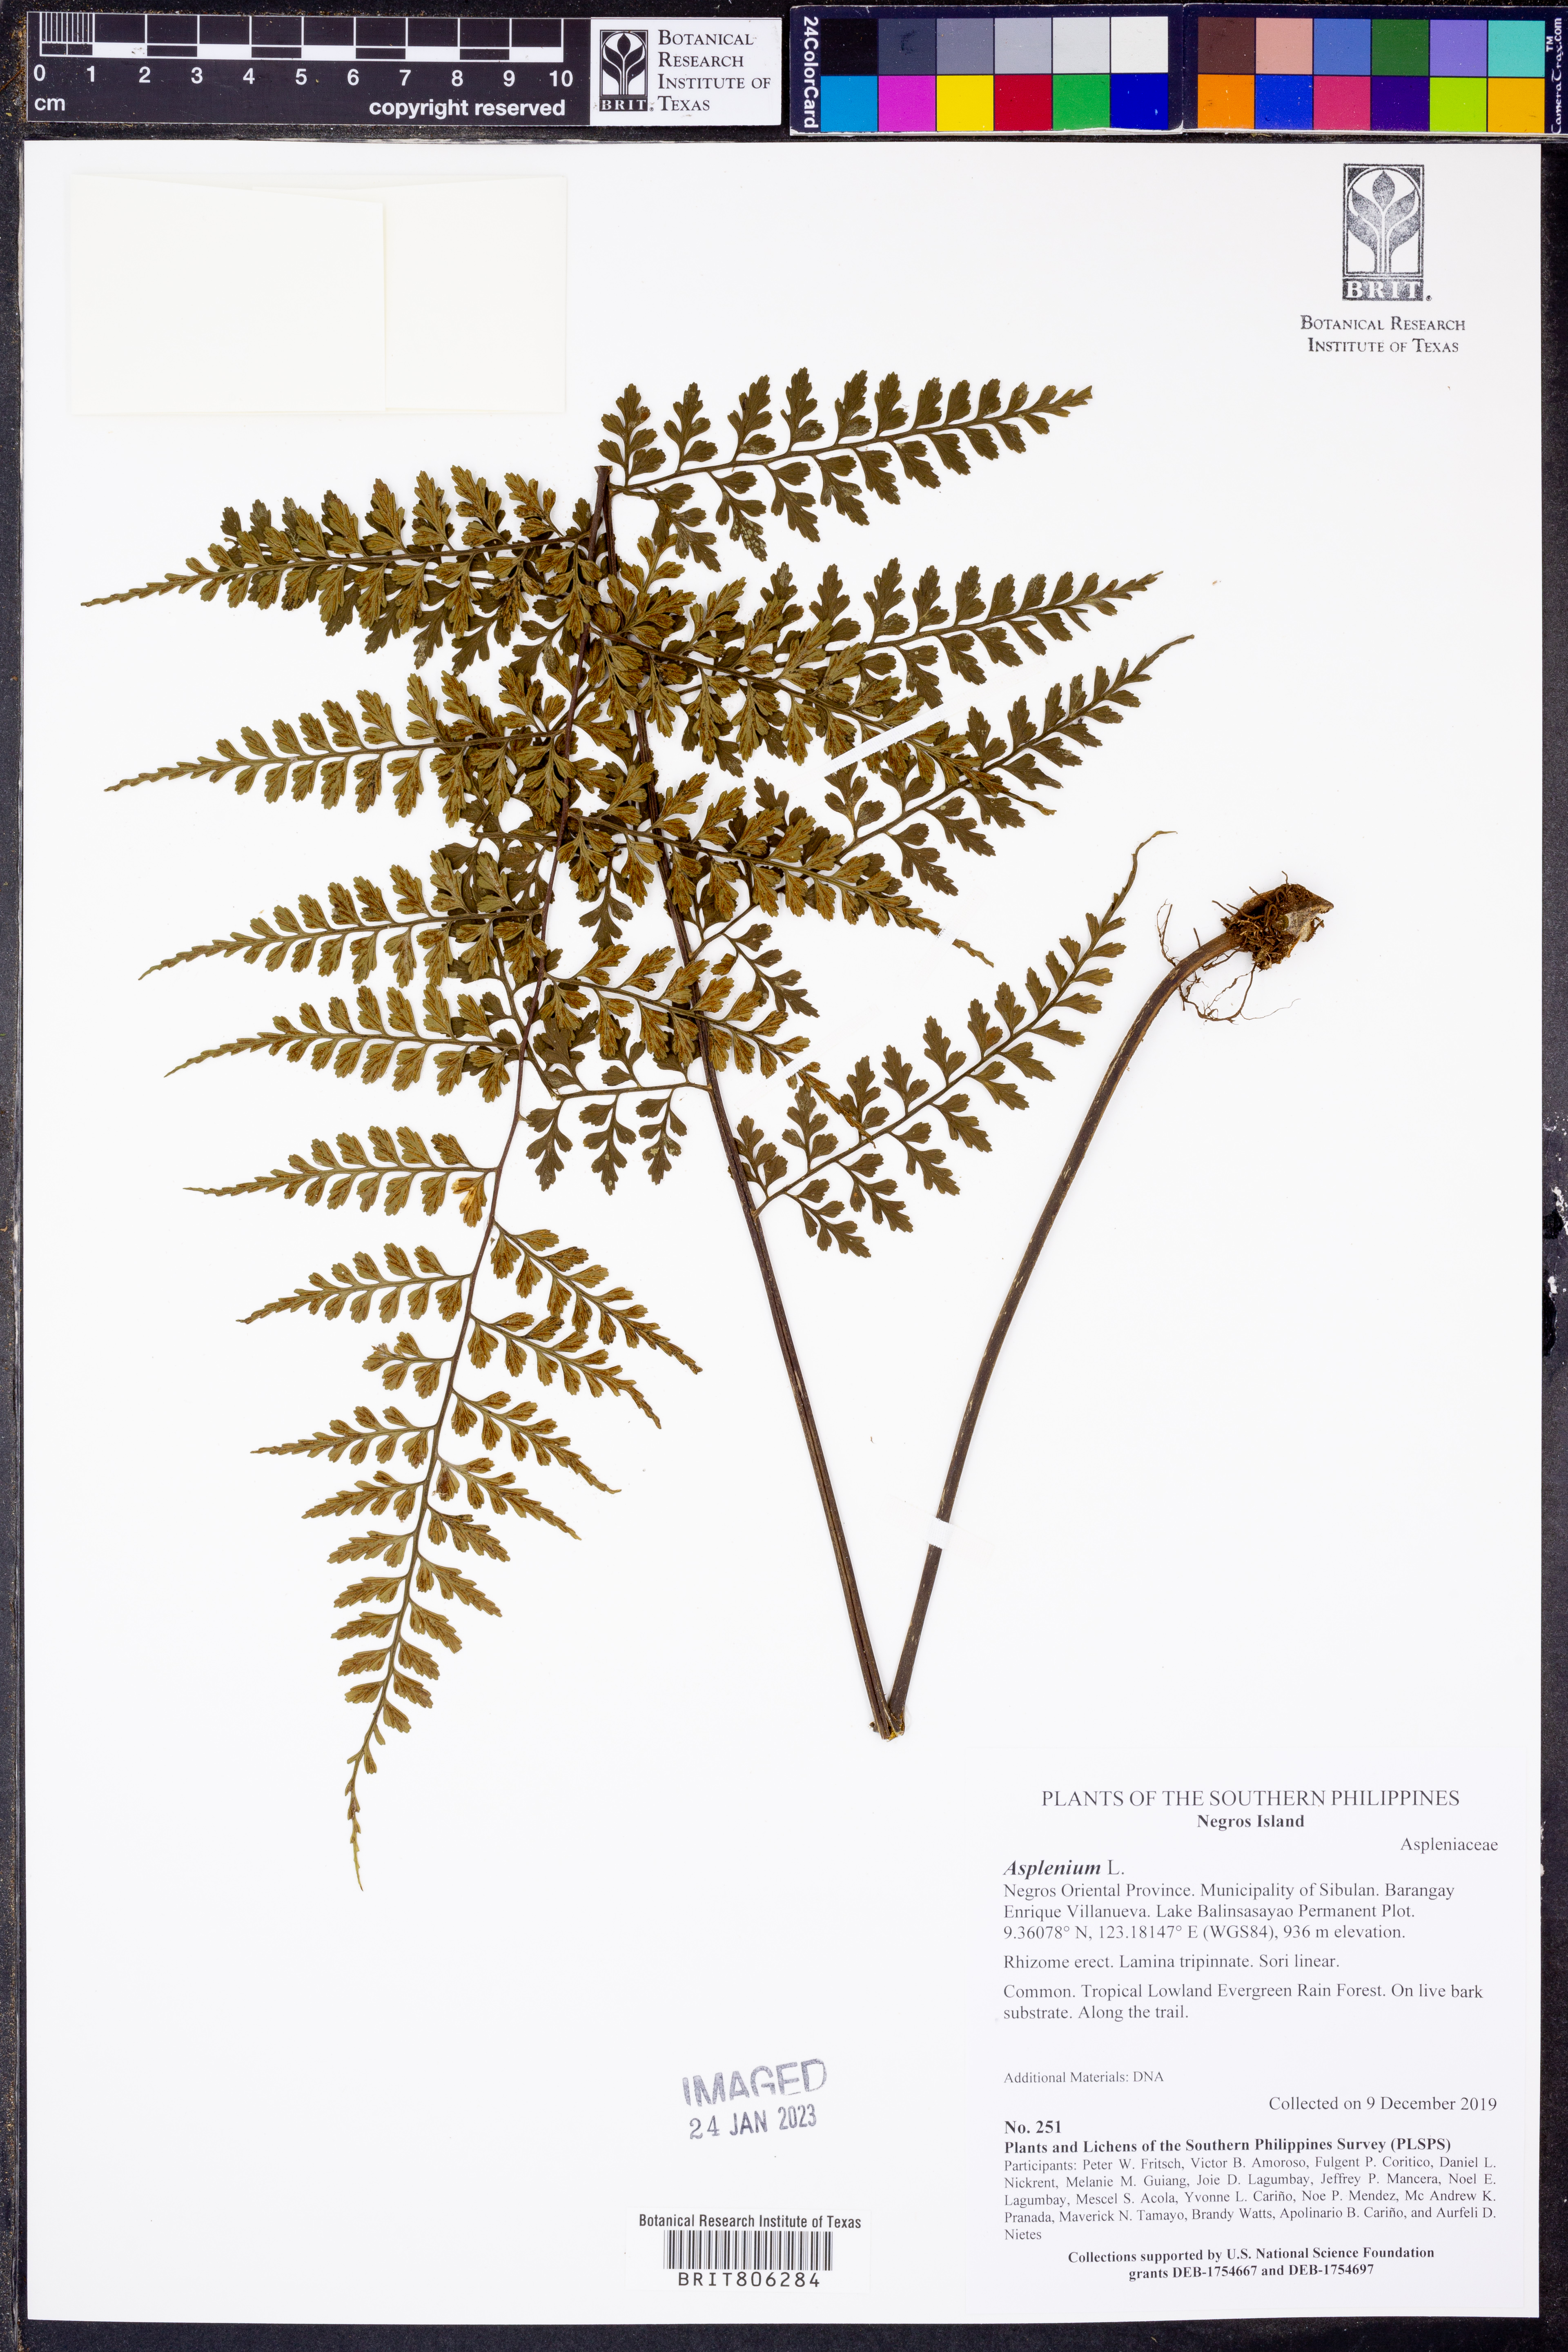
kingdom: Plantae
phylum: Tracheophyta
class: Polypodiopsida
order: Polypodiales
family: Aspleniaceae
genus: Asplenium
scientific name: Asplenium
